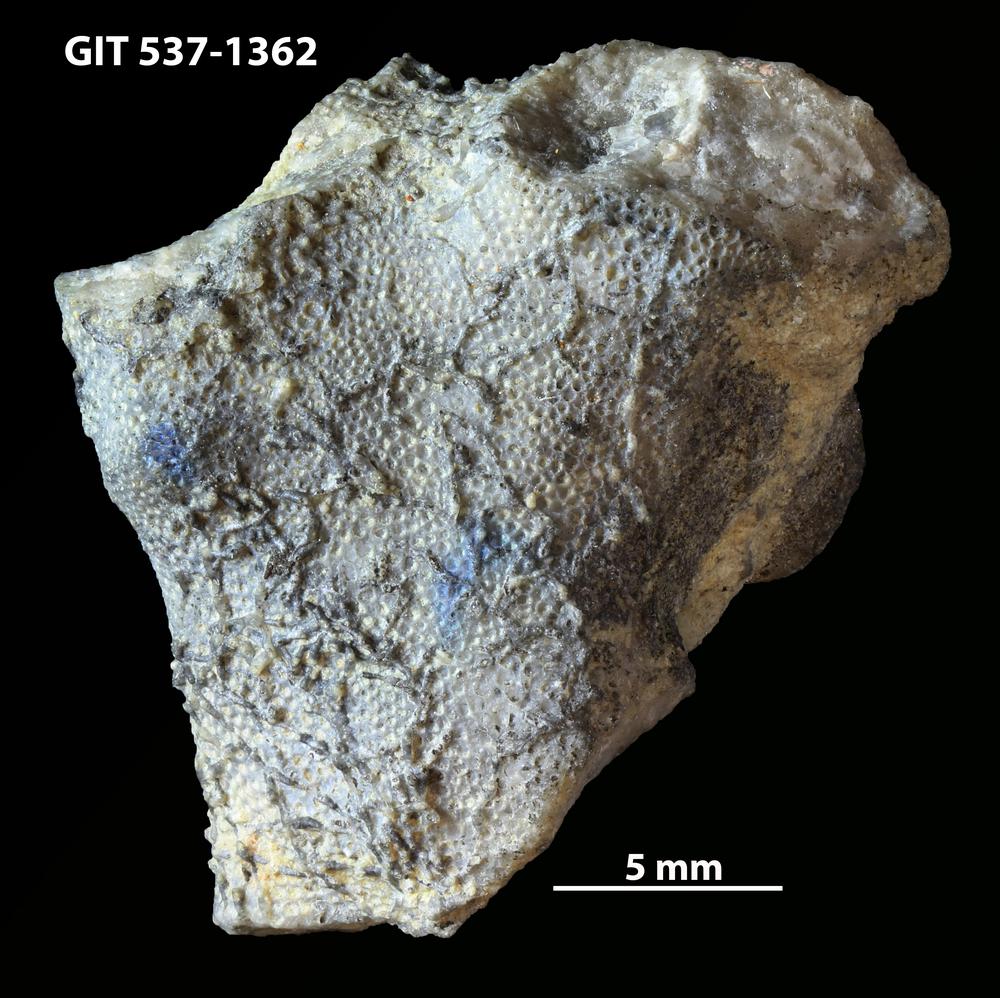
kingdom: Animalia
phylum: Bryozoa
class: Stenolaemata
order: Cyclostomatida
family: Corynotrypidae
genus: Corynotrypa
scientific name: Corynotrypa delicatula
